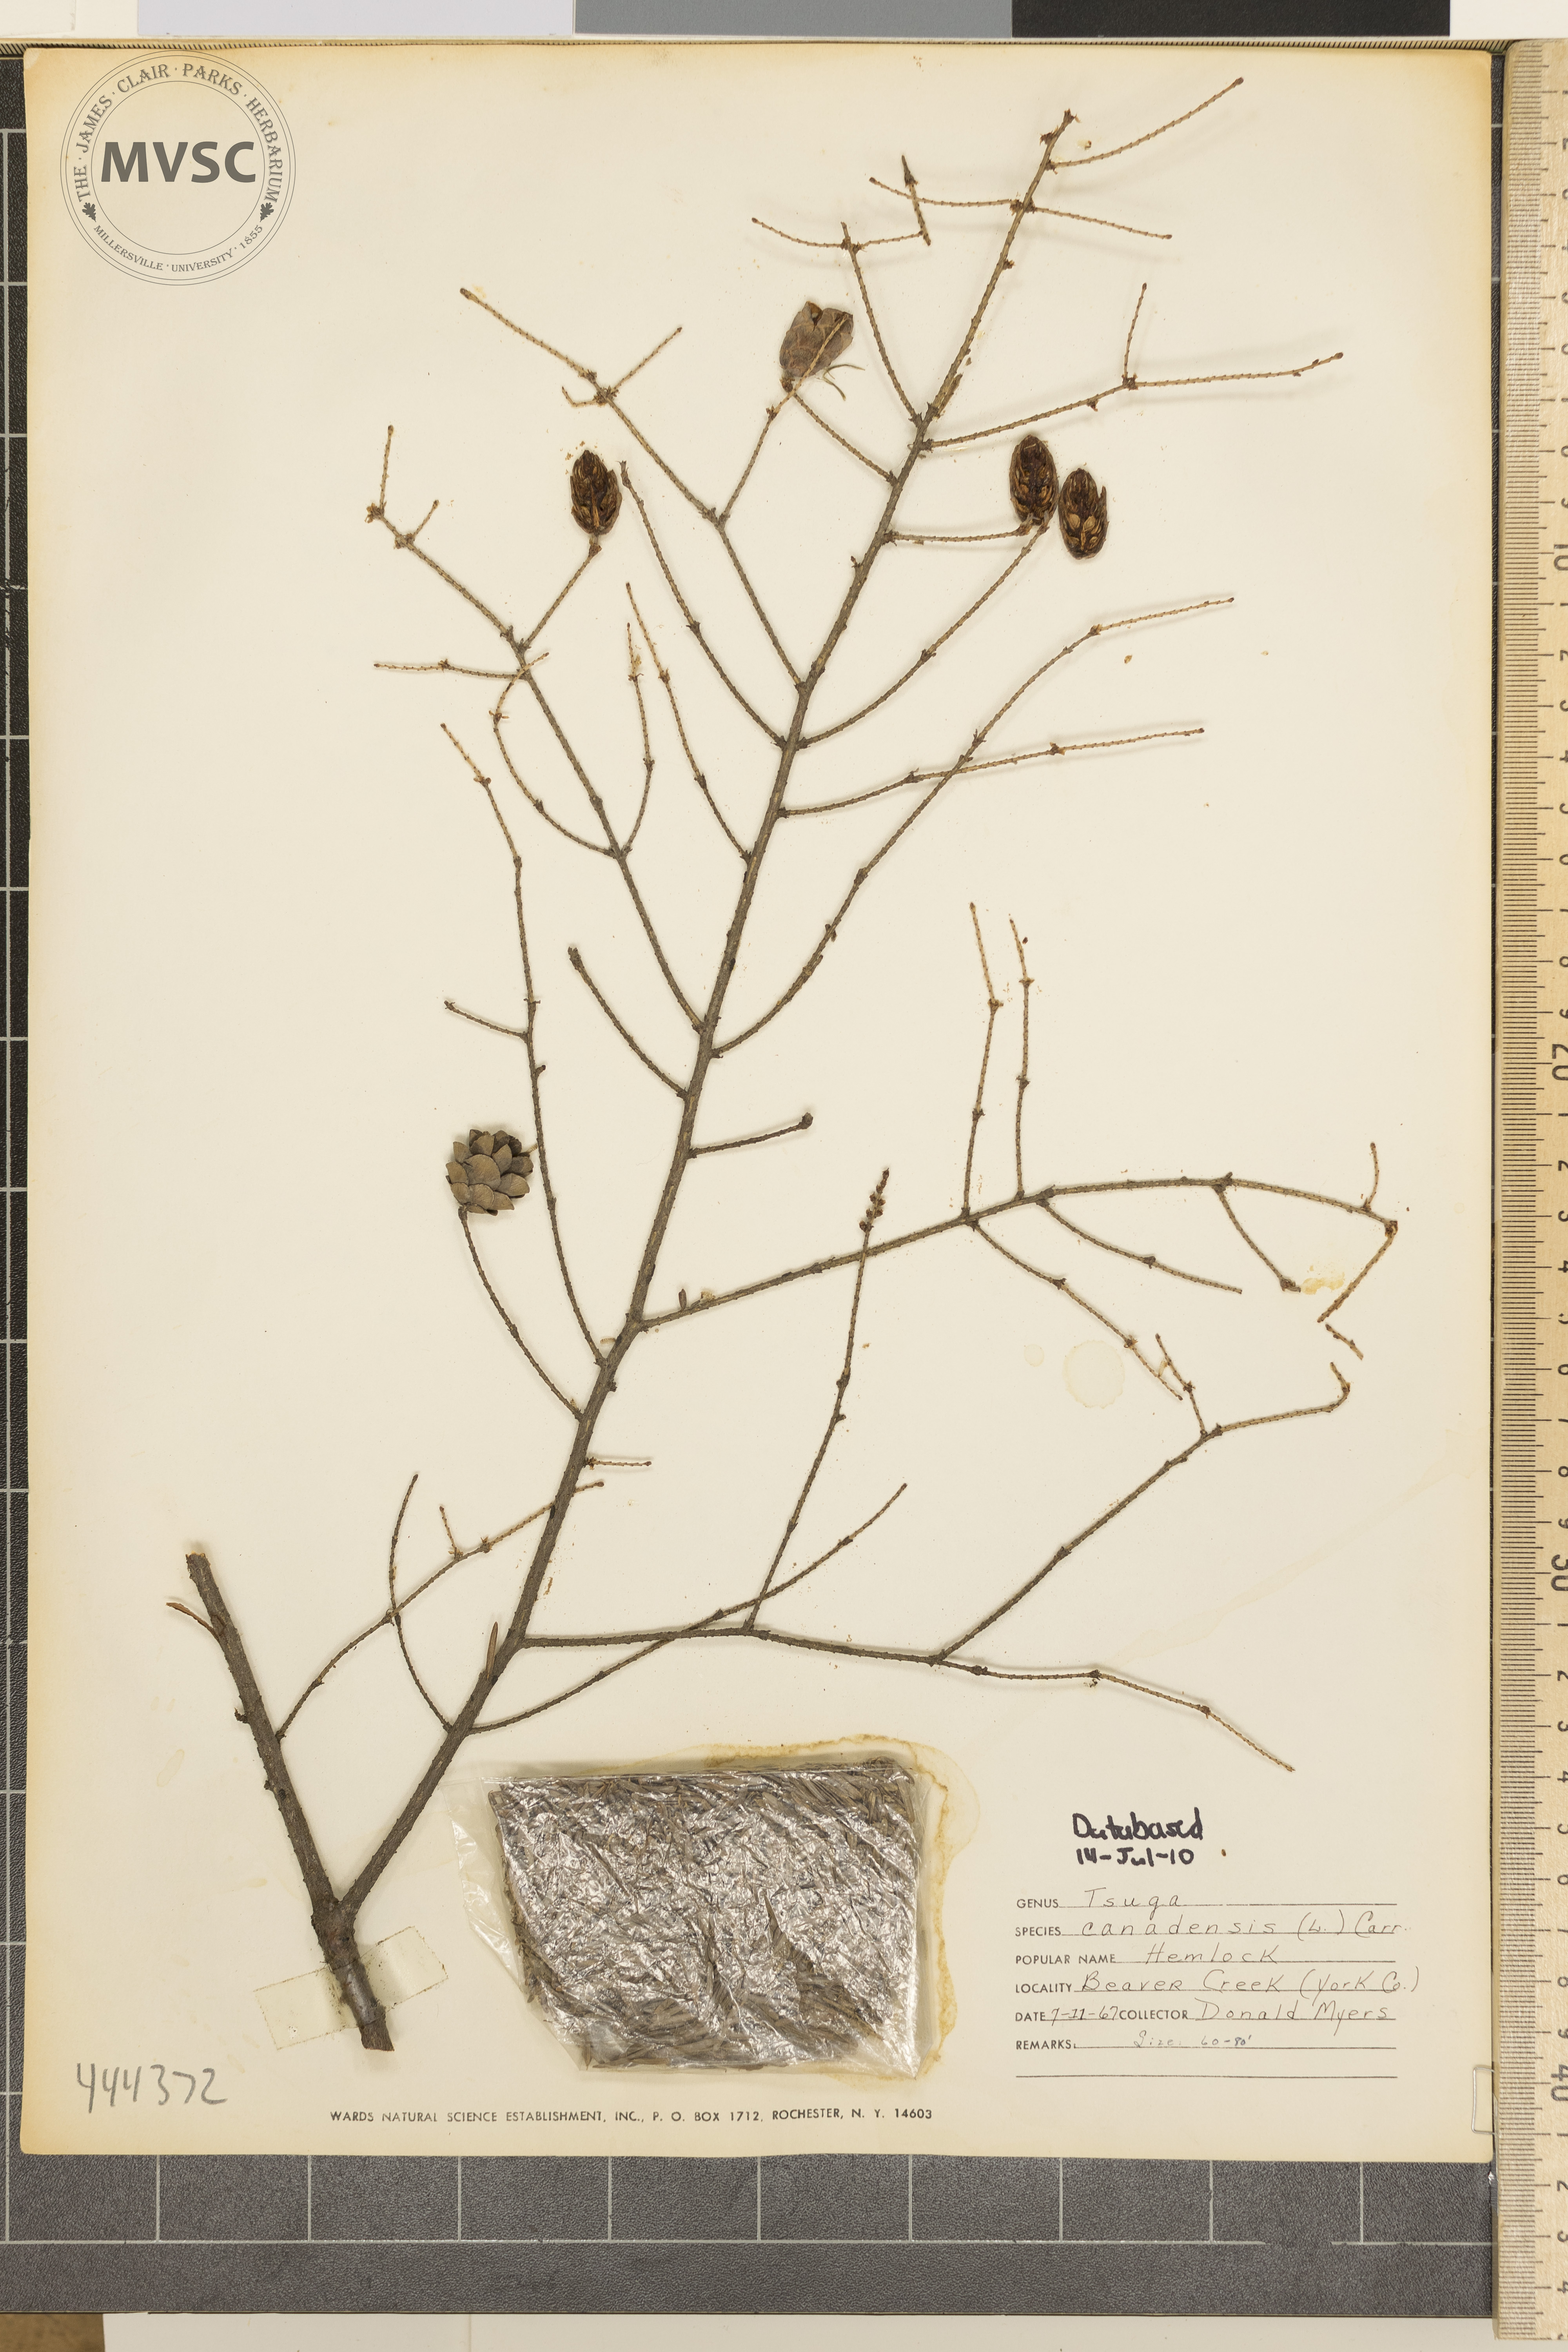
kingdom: Plantae
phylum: Tracheophyta
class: Pinopsida
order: Pinales
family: Pinaceae
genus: Tsuga
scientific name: Tsuga canadensis
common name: Hemlock
